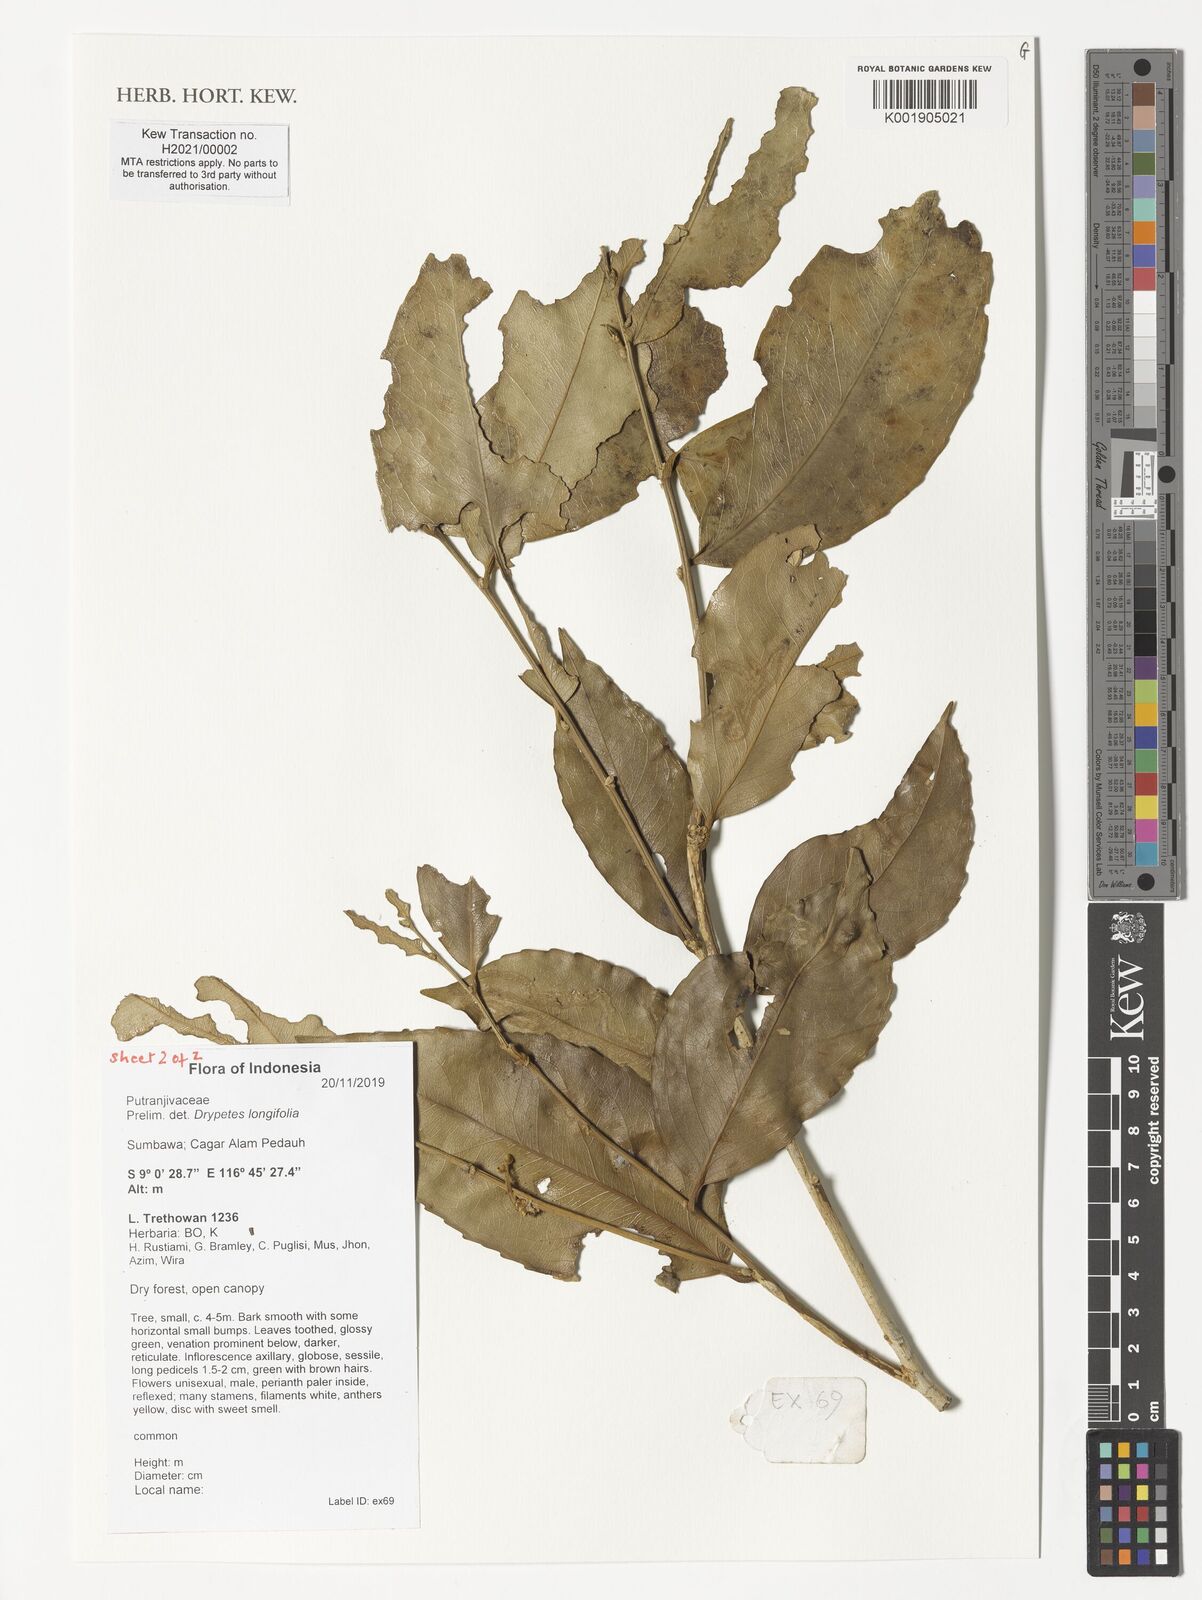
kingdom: Plantae
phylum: Tracheophyta
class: Magnoliopsida
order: Malpighiales
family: Putranjivaceae
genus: Drypetes
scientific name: Drypetes longifolia
